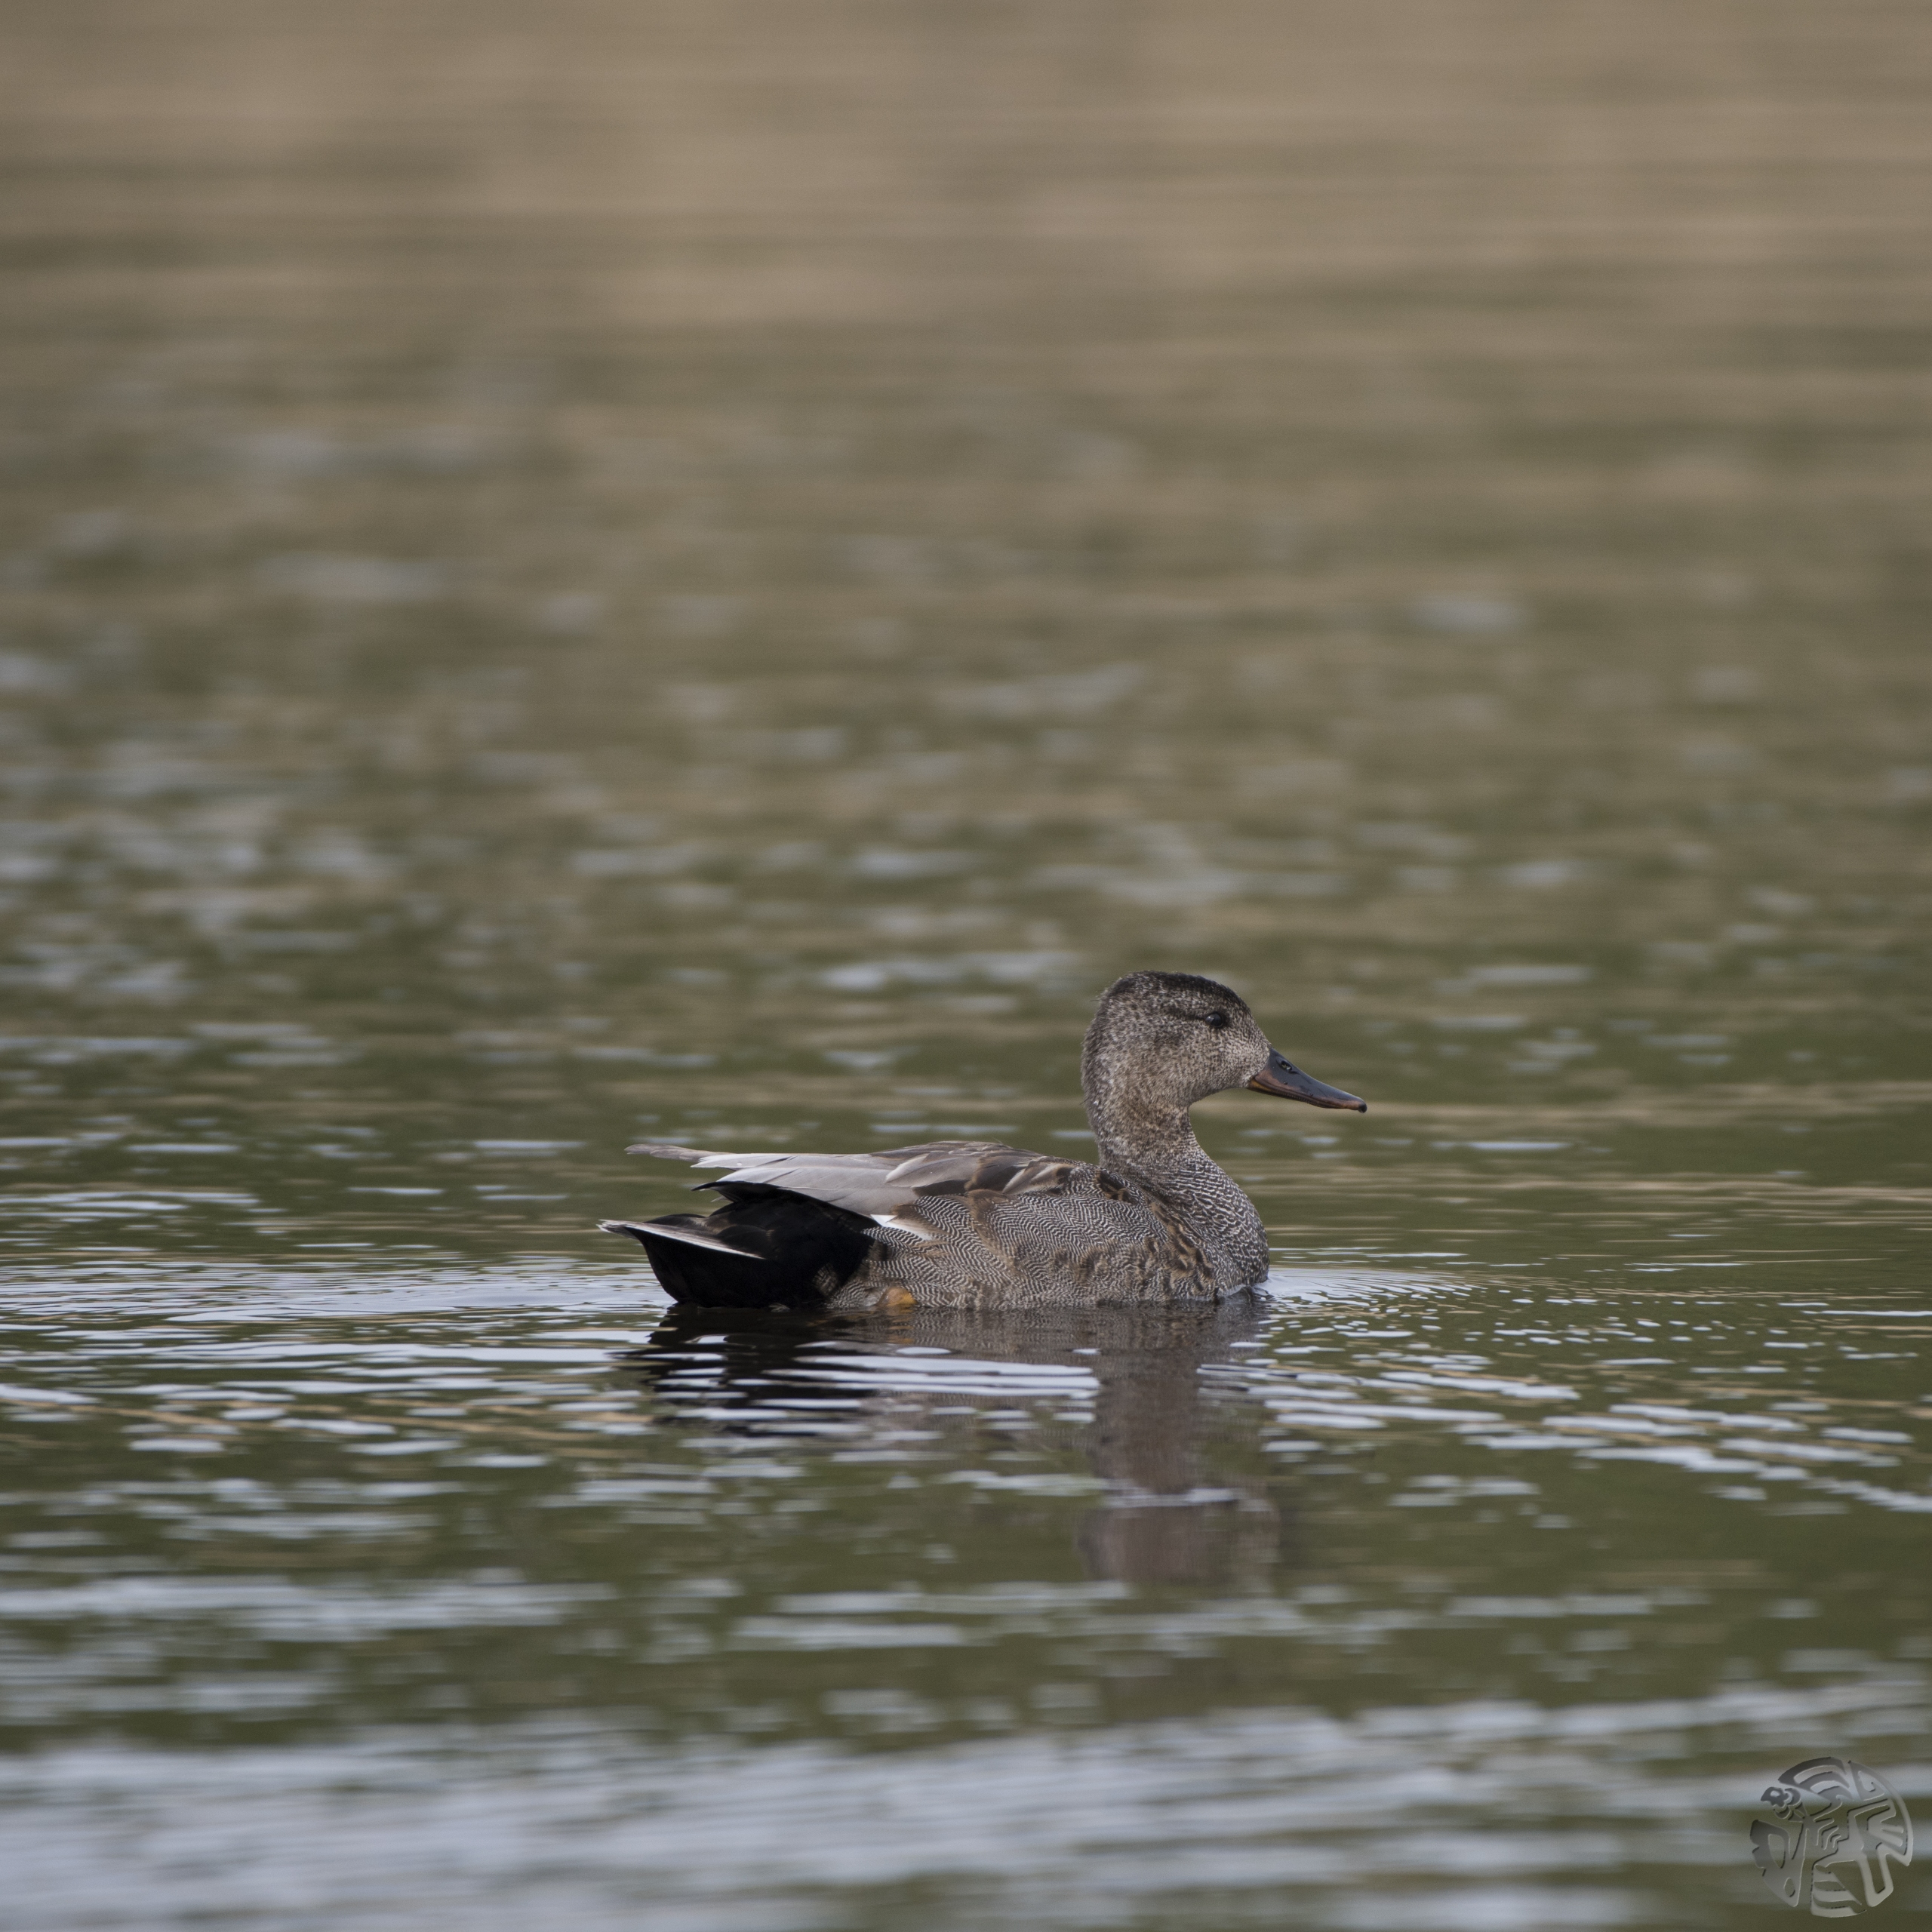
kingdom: Animalia
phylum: Chordata
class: Aves
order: Anseriformes
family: Anatidae
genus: Mareca
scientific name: Mareca strepera
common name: Knarand
